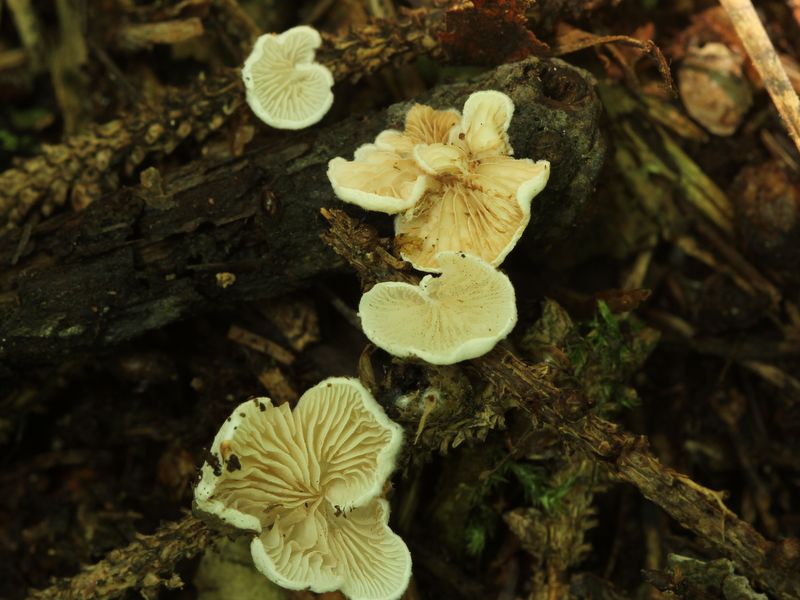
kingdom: Fungi
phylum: Basidiomycota
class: Agaricomycetes
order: Agaricales
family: Crepidotaceae
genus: Crepidotus
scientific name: Crepidotus variabilis
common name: forskelligformet muslingesvamp
